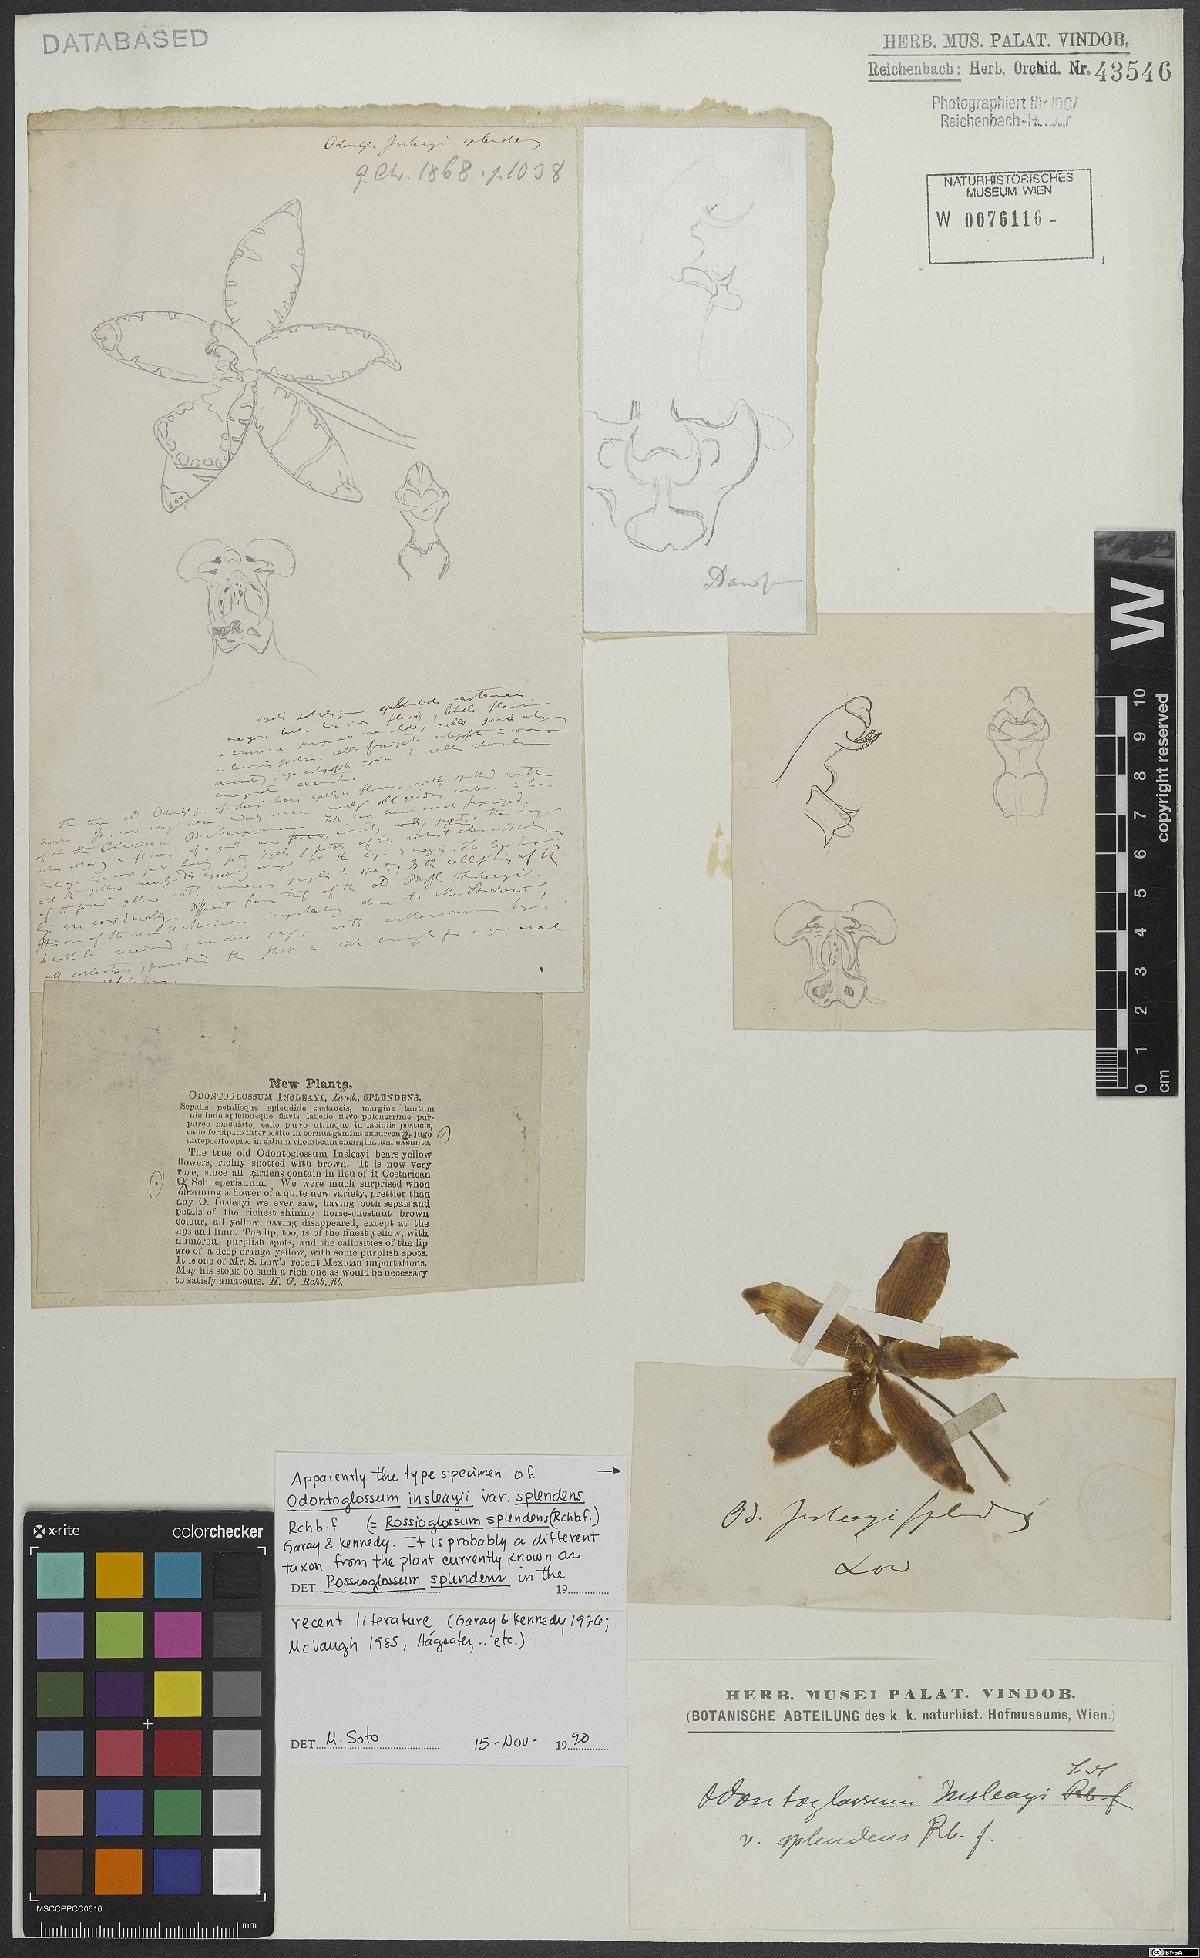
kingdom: Plantae
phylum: Tracheophyta
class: Liliopsida
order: Asparagales
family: Orchidaceae
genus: Rossioglossum
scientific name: Rossioglossum splendens
